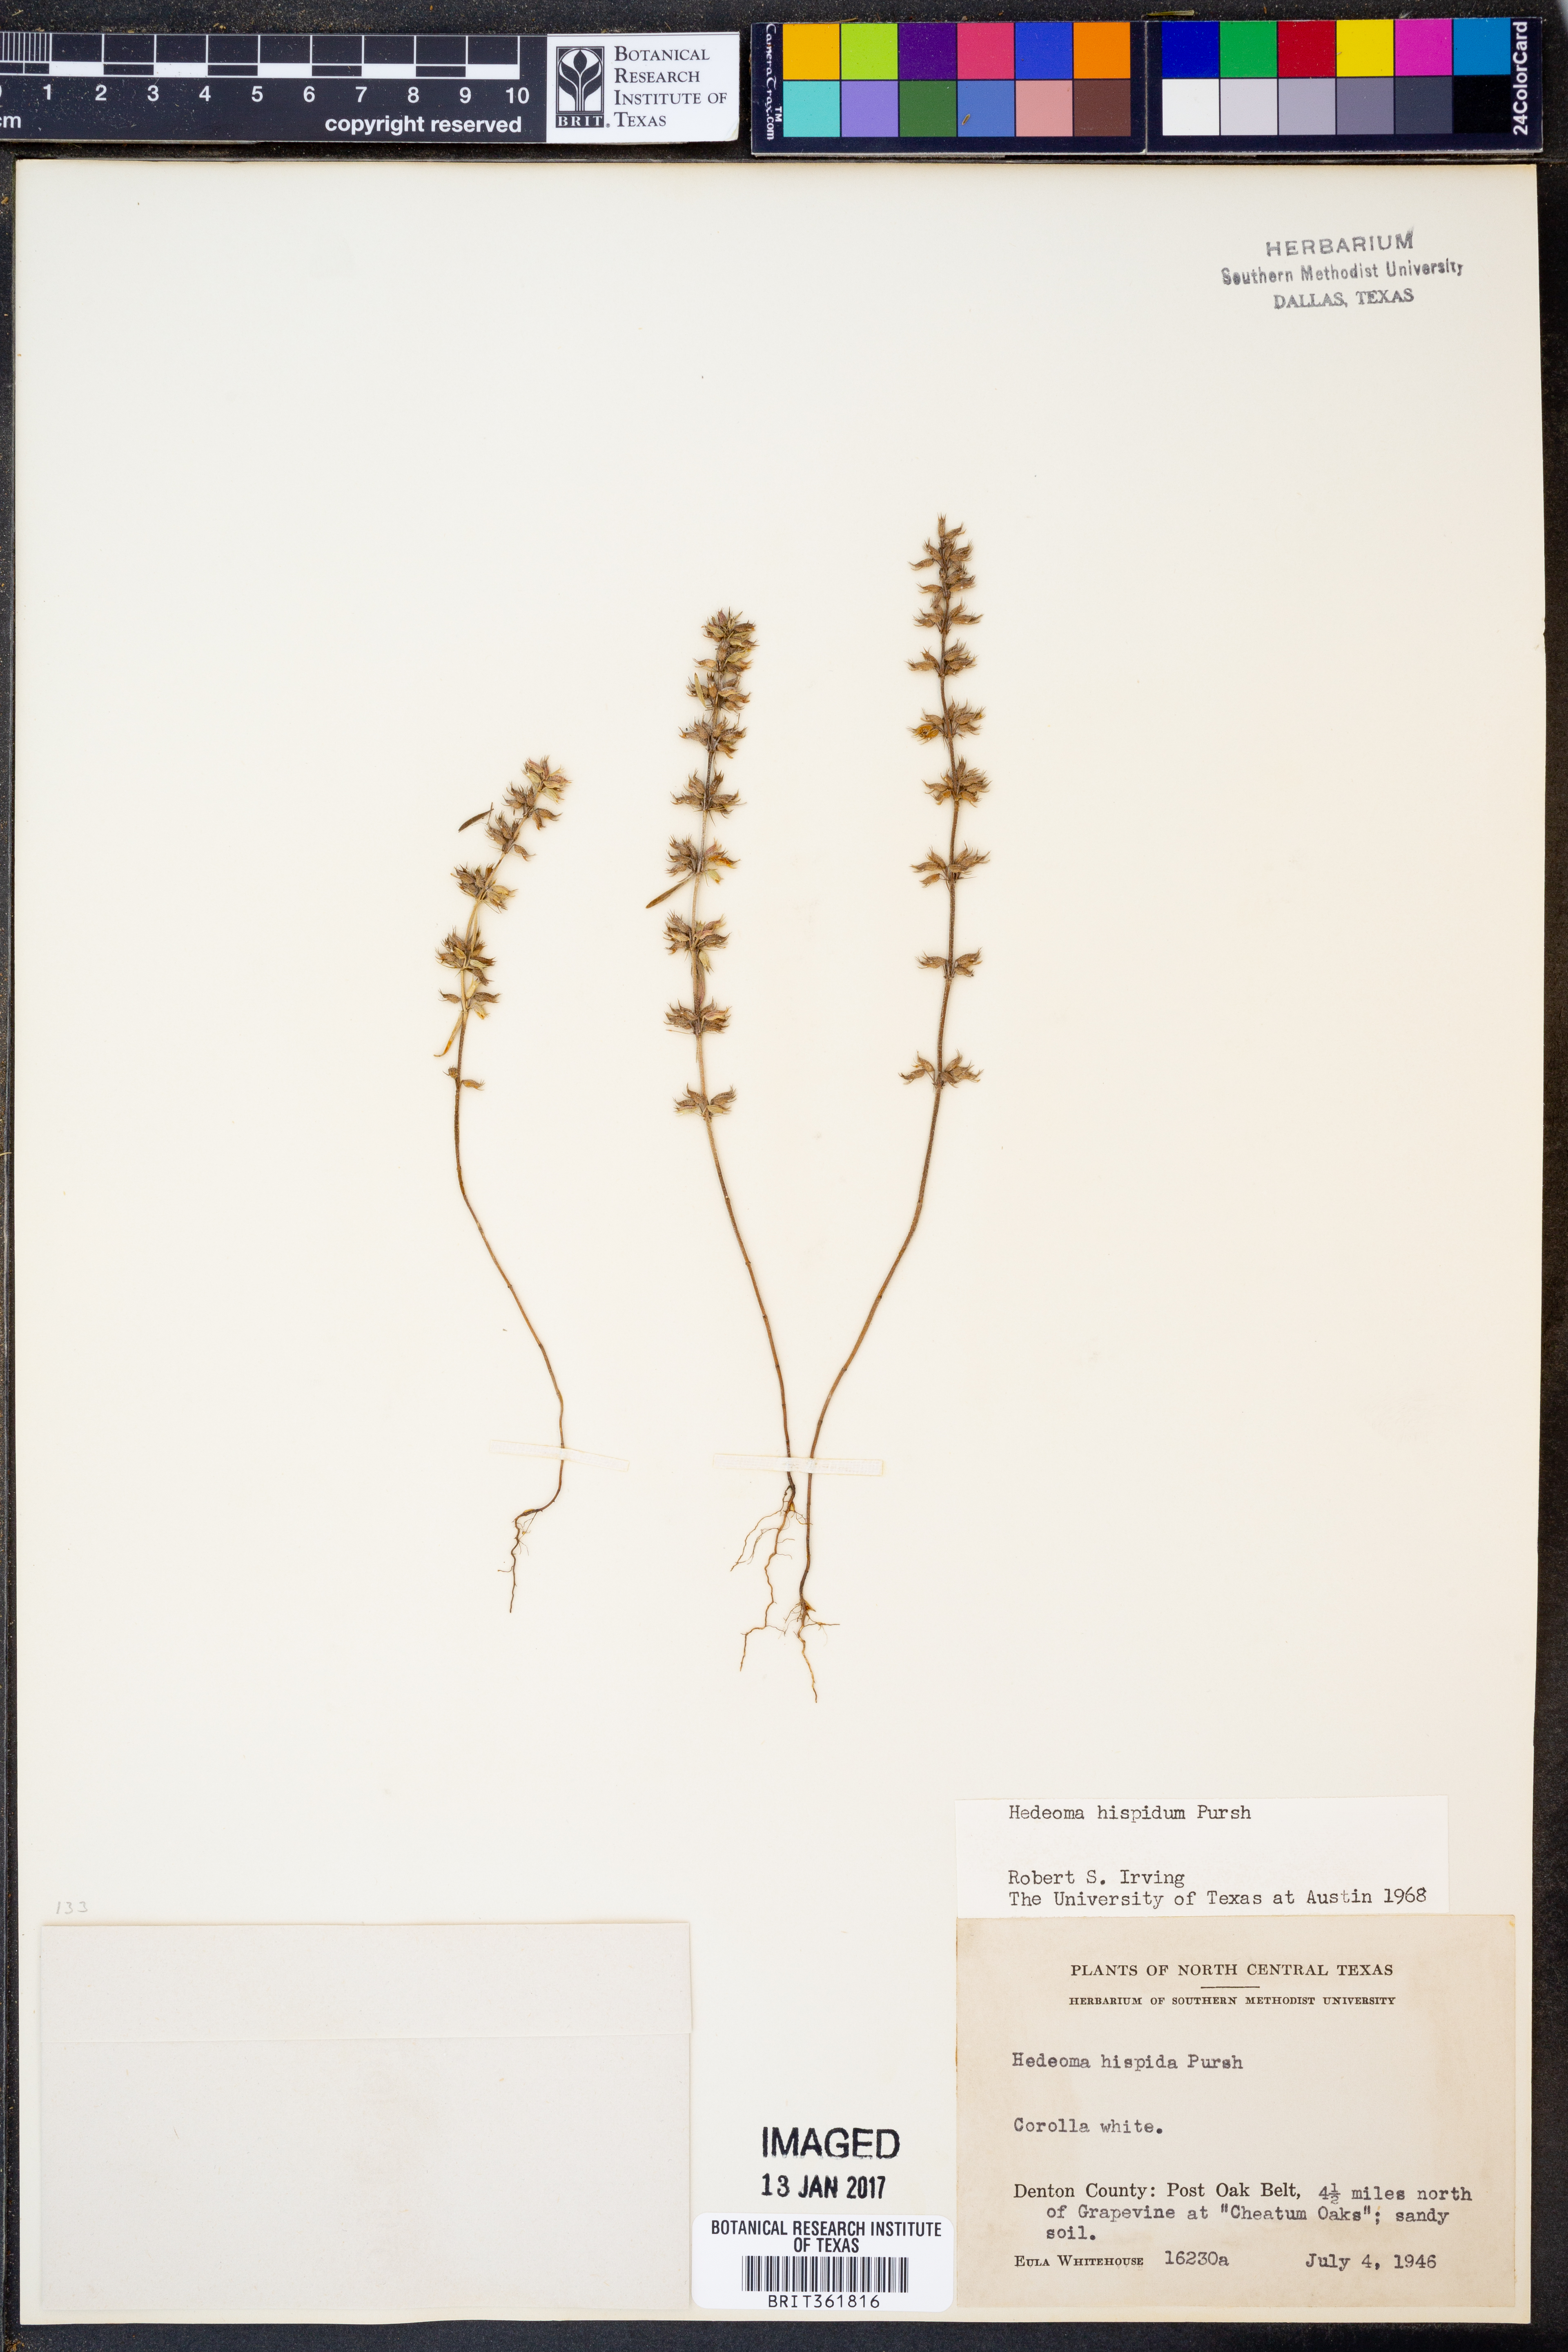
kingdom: Plantae
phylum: Tracheophyta
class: Magnoliopsida
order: Lamiales
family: Lamiaceae
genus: Hedeoma
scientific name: Hedeoma hispida
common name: Mock pennyroyal
